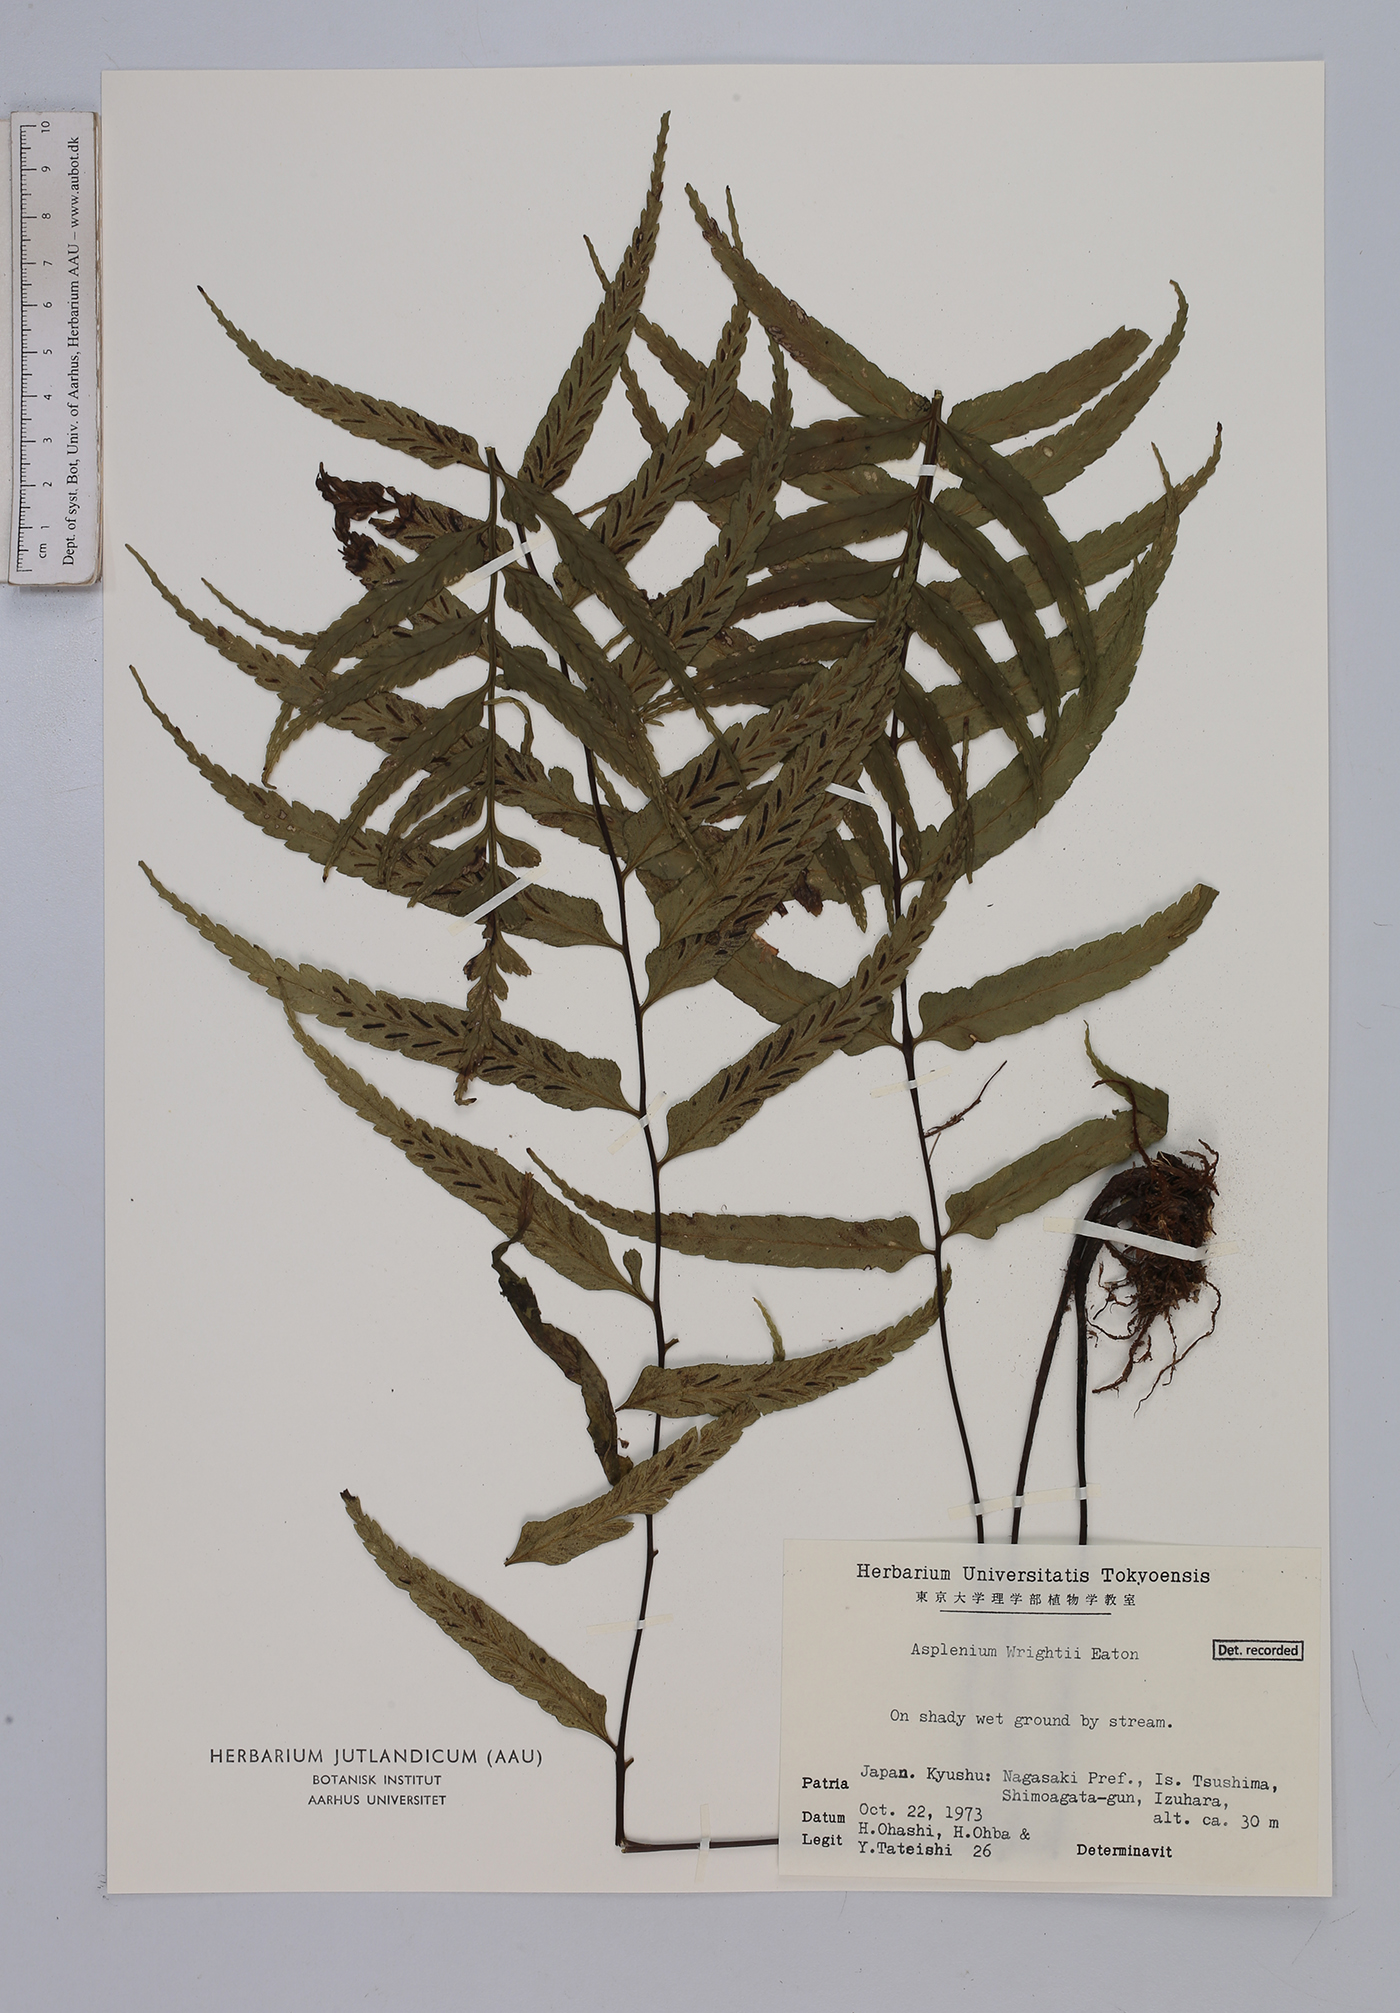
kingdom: Plantae
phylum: Tracheophyta
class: Polypodiopsida
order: Polypodiales
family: Aspleniaceae
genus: Asplenium
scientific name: Asplenium wrightii
